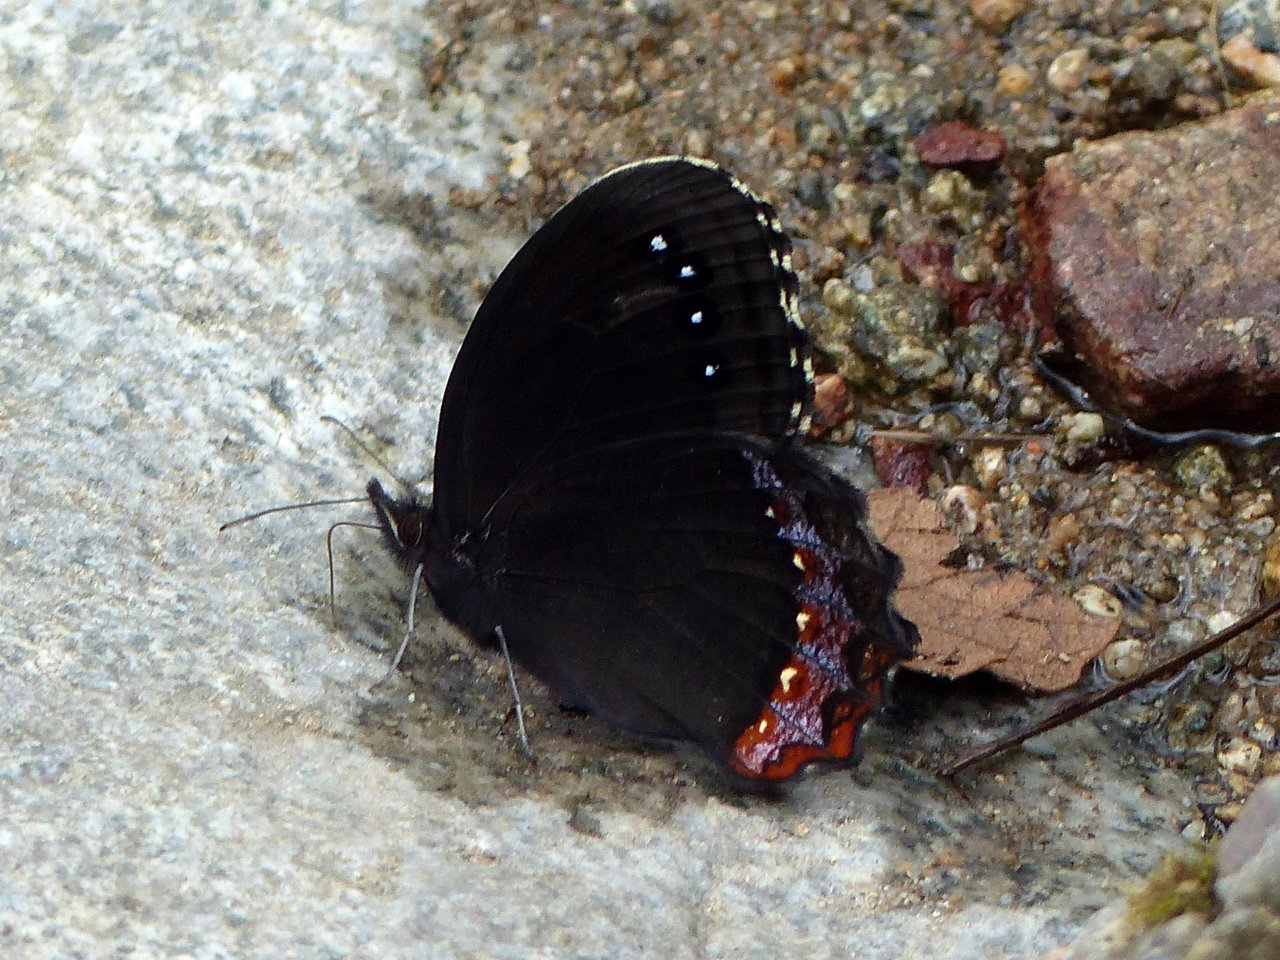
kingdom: Animalia
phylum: Arthropoda
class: Insecta
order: Lepidoptera
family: Nymphalidae
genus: Gyrocheilus
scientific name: Gyrocheilus patrobas
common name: Red-bordered Satyr
